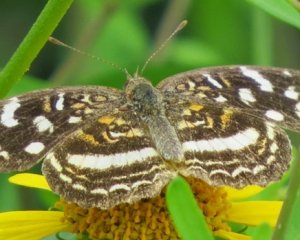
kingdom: Animalia
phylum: Arthropoda
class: Insecta
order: Lepidoptera
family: Nymphalidae
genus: Anthanassa
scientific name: Anthanassa tulcis
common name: Pale-banded Crescent
